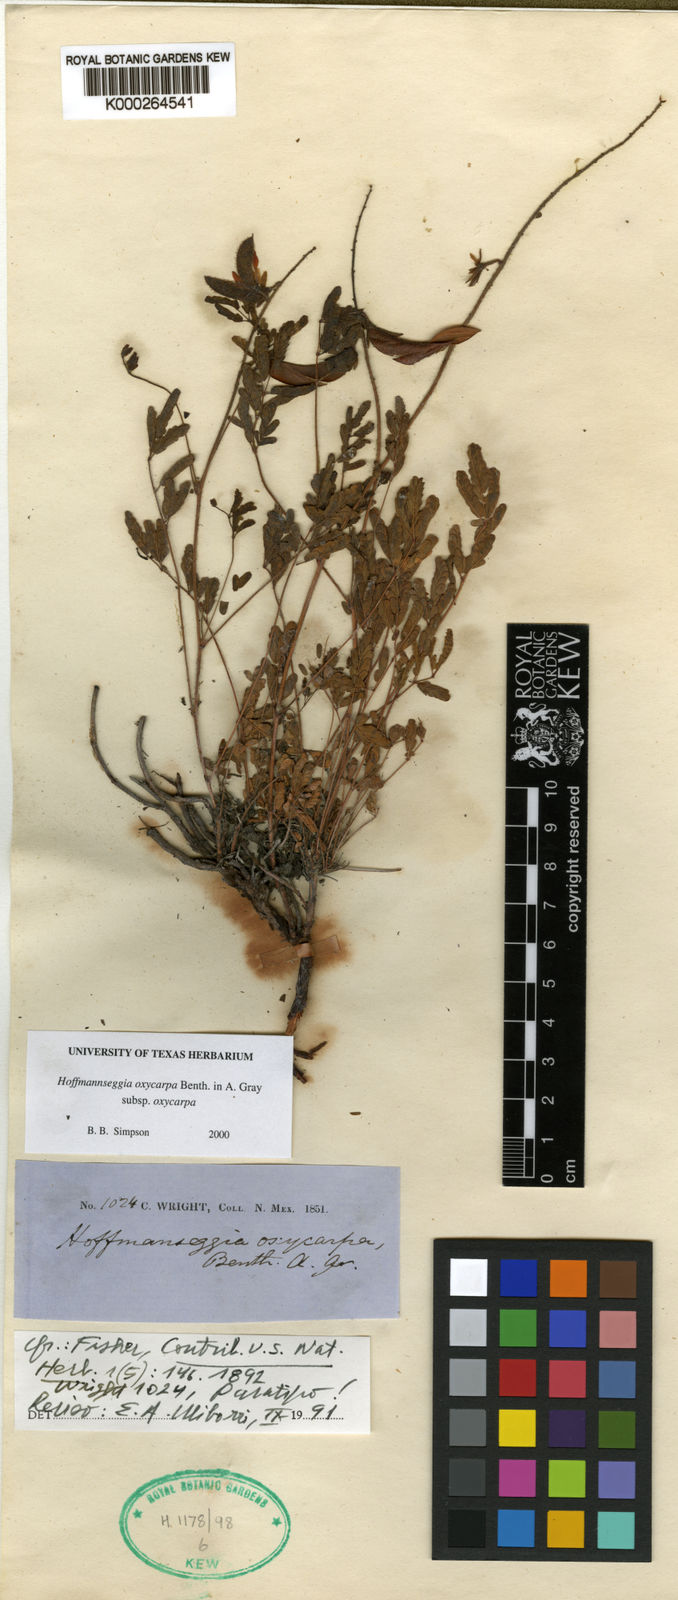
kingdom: Plantae
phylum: Tracheophyta
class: Magnoliopsida
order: Fabales
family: Fabaceae
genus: Hoffmannseggia
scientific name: Hoffmannseggia oxycarpa
